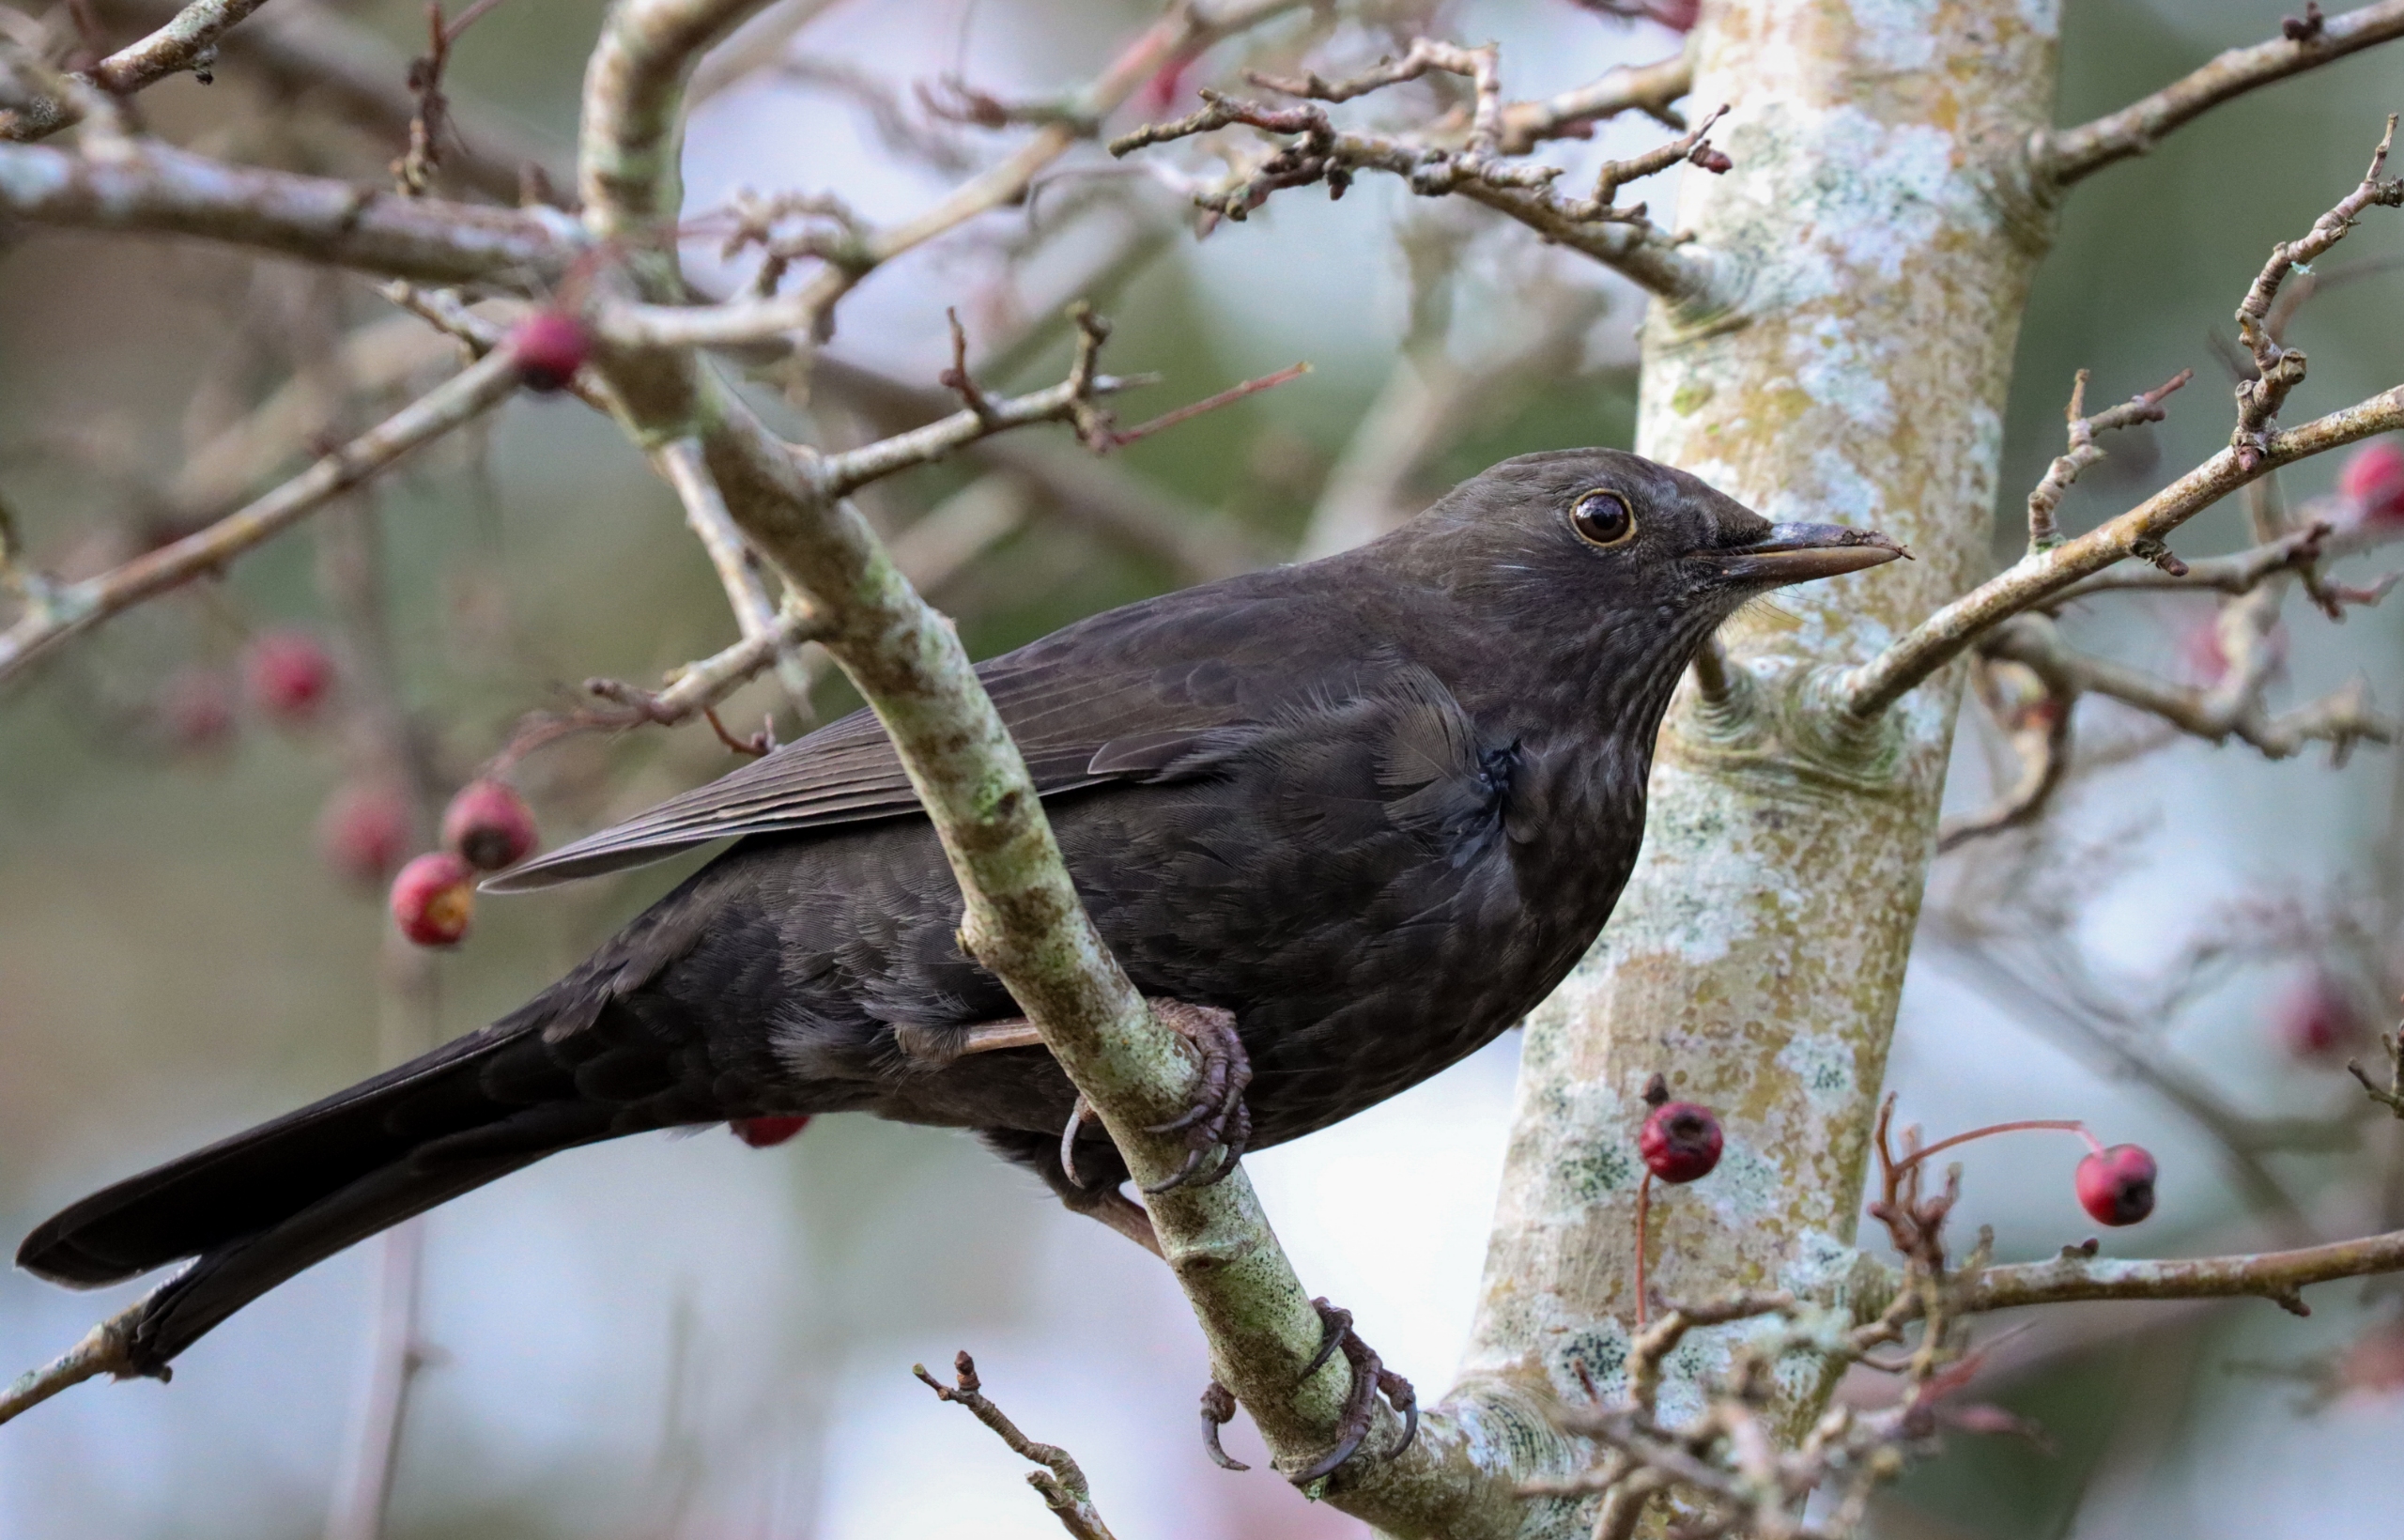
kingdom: Animalia
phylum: Chordata
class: Aves
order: Passeriformes
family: Turdidae
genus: Turdus
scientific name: Turdus merula
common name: Solsort
